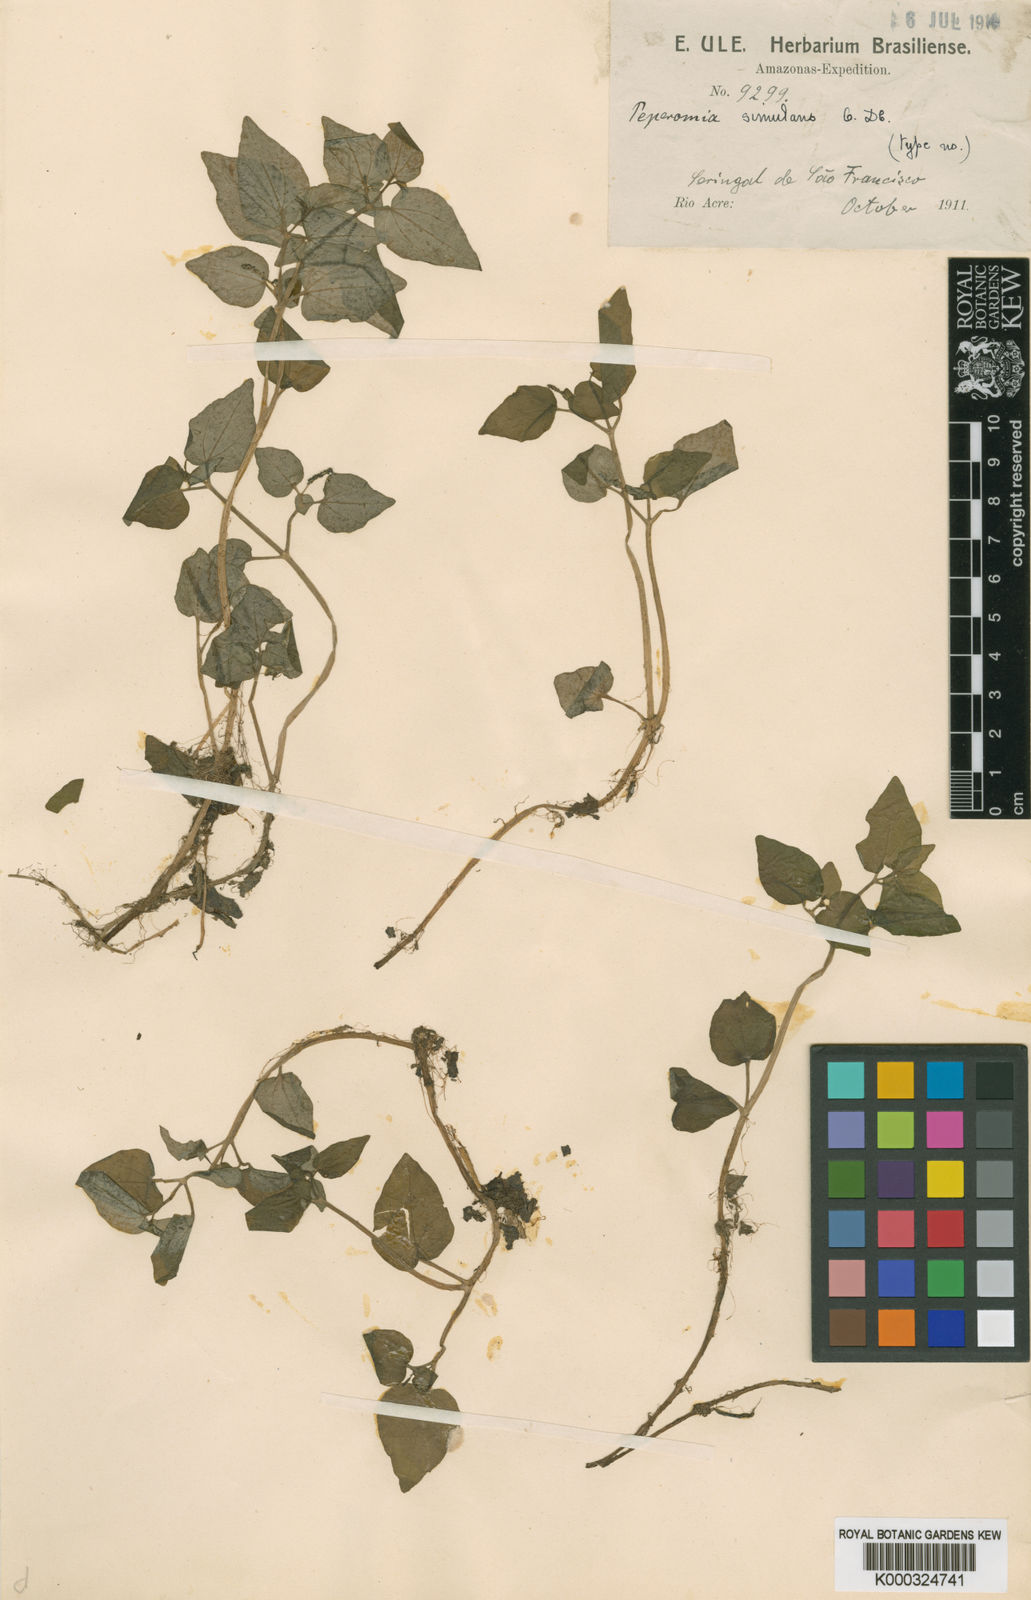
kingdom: Plantae
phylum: Tracheophyta
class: Magnoliopsida
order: Piperales
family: Piperaceae
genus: Peperomia
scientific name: Peperomia simulans
